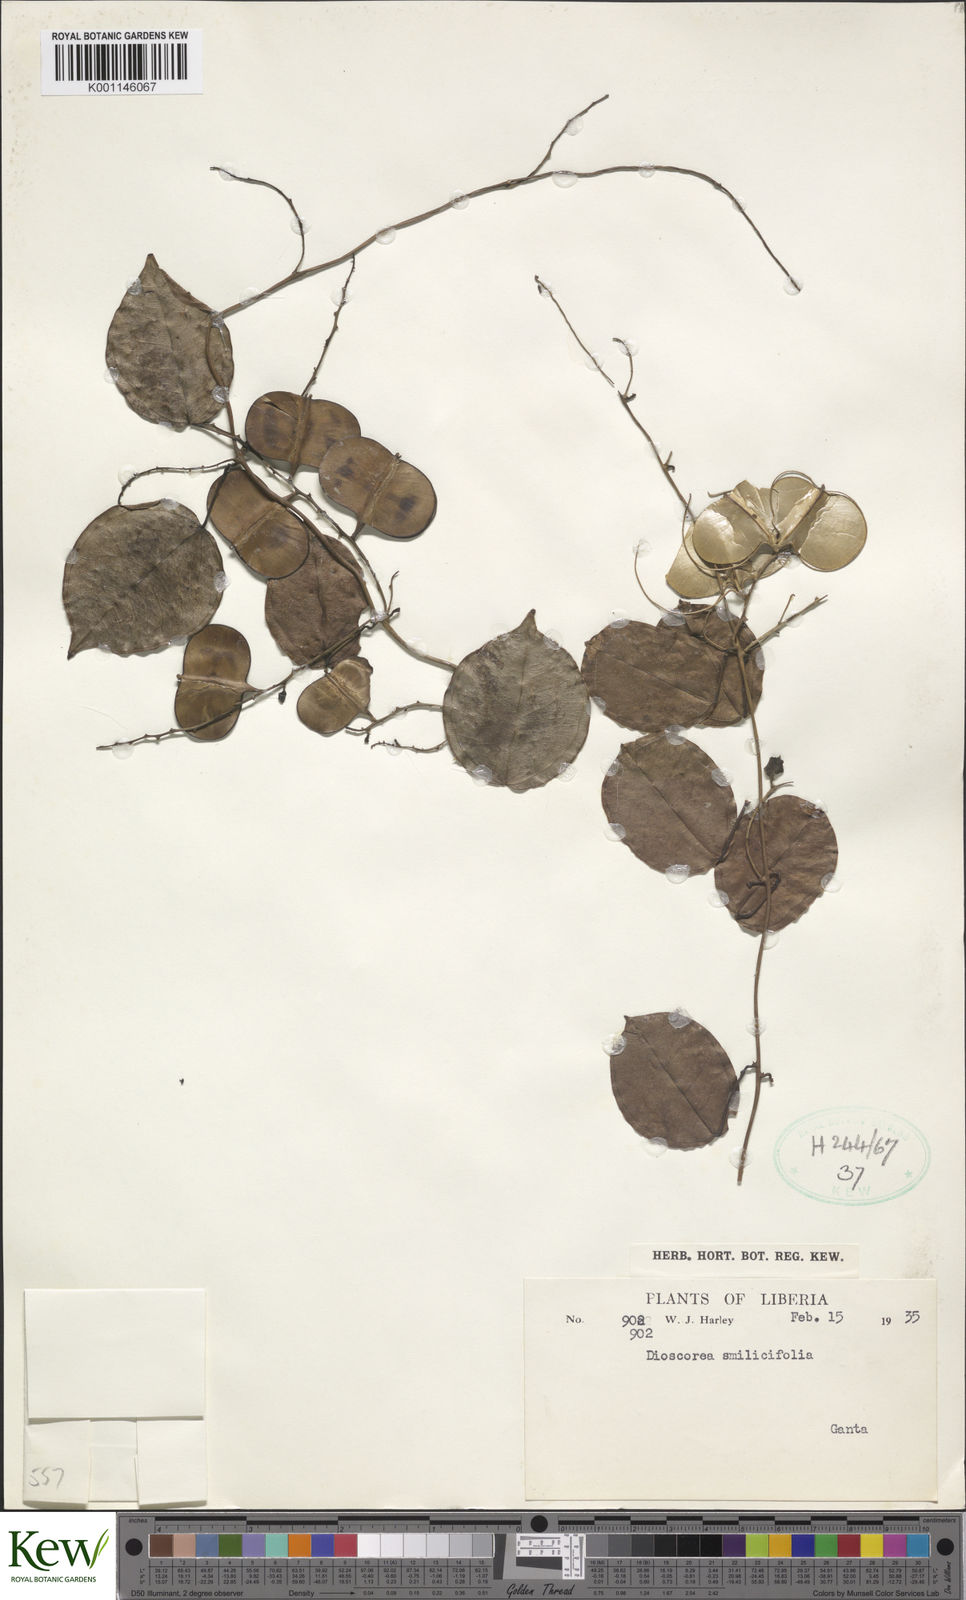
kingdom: Plantae
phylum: Tracheophyta
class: Liliopsida
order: Dioscoreales
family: Dioscoreaceae
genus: Dioscorea
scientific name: Dioscorea smilacifolia
